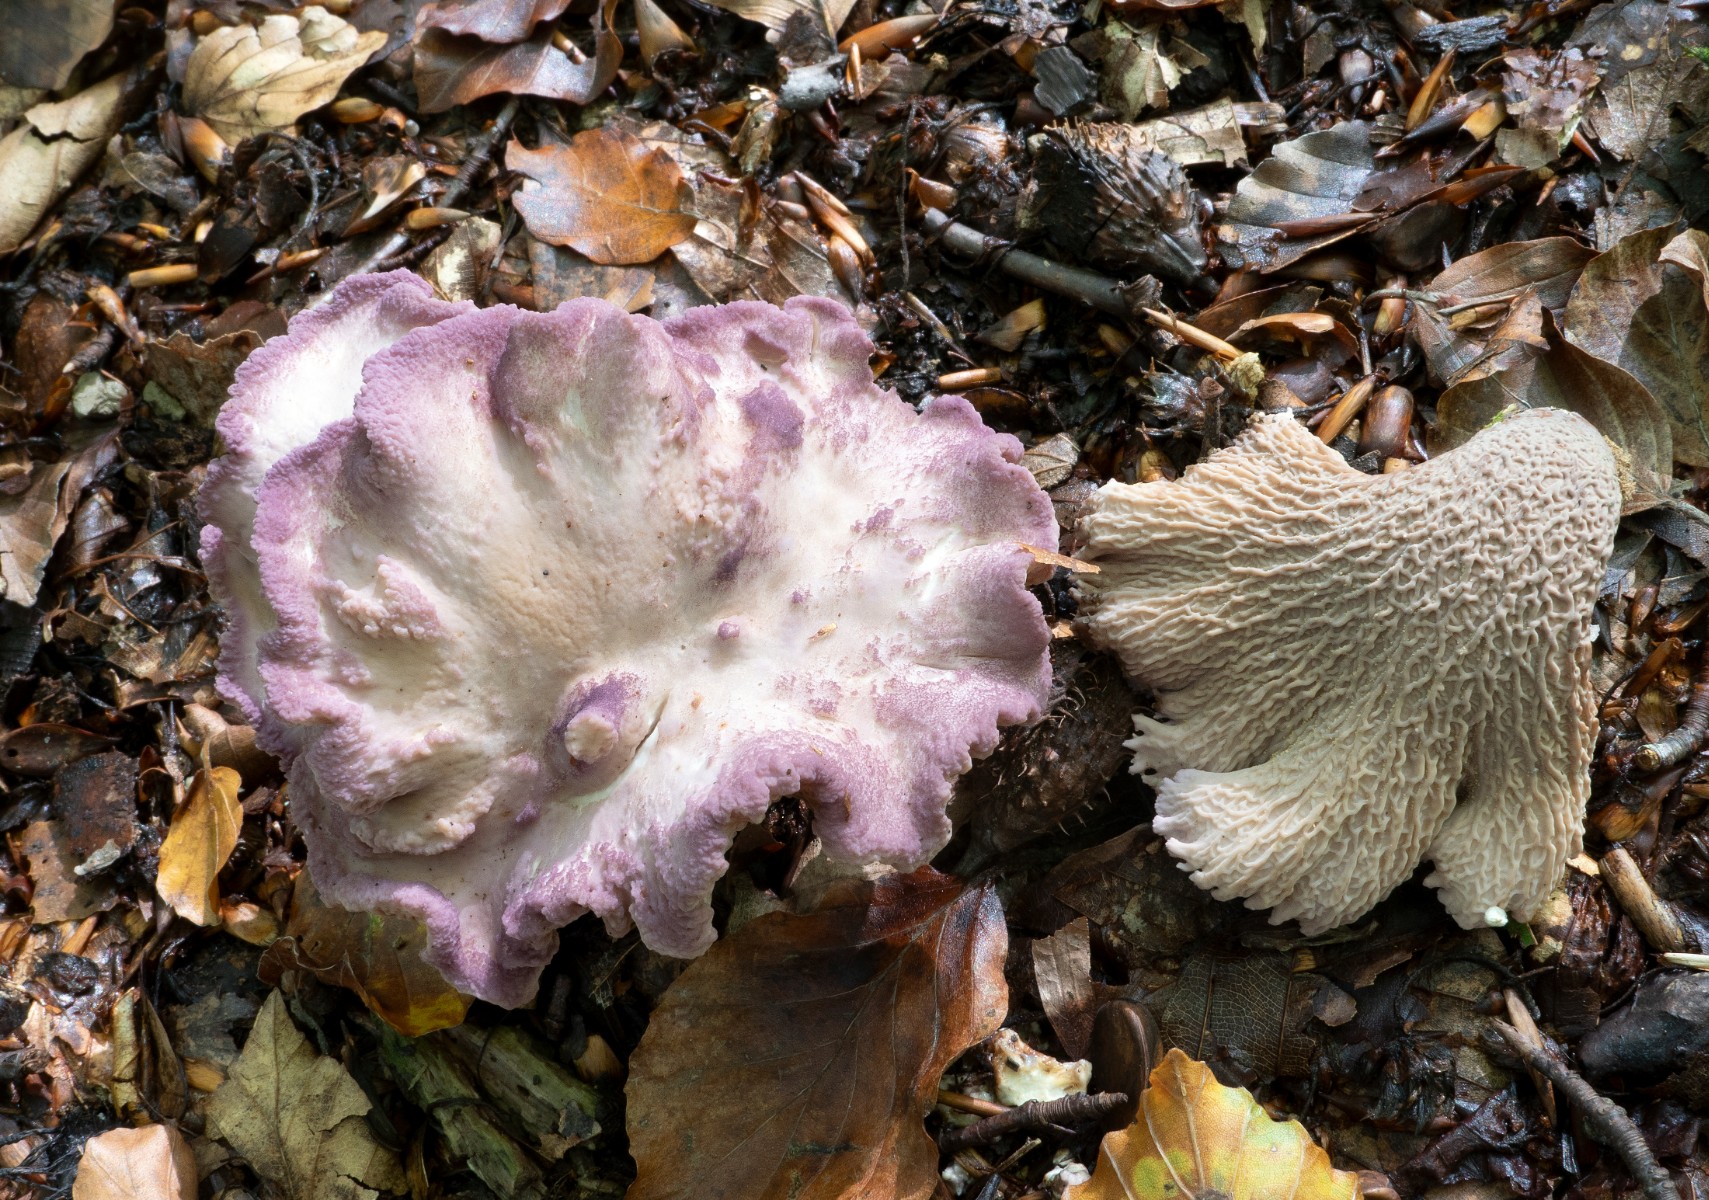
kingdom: Fungi
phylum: Basidiomycota
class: Agaricomycetes
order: Gomphales
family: Gomphaceae
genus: Gomphus
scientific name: Gomphus clavatus
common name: køllekantarel
